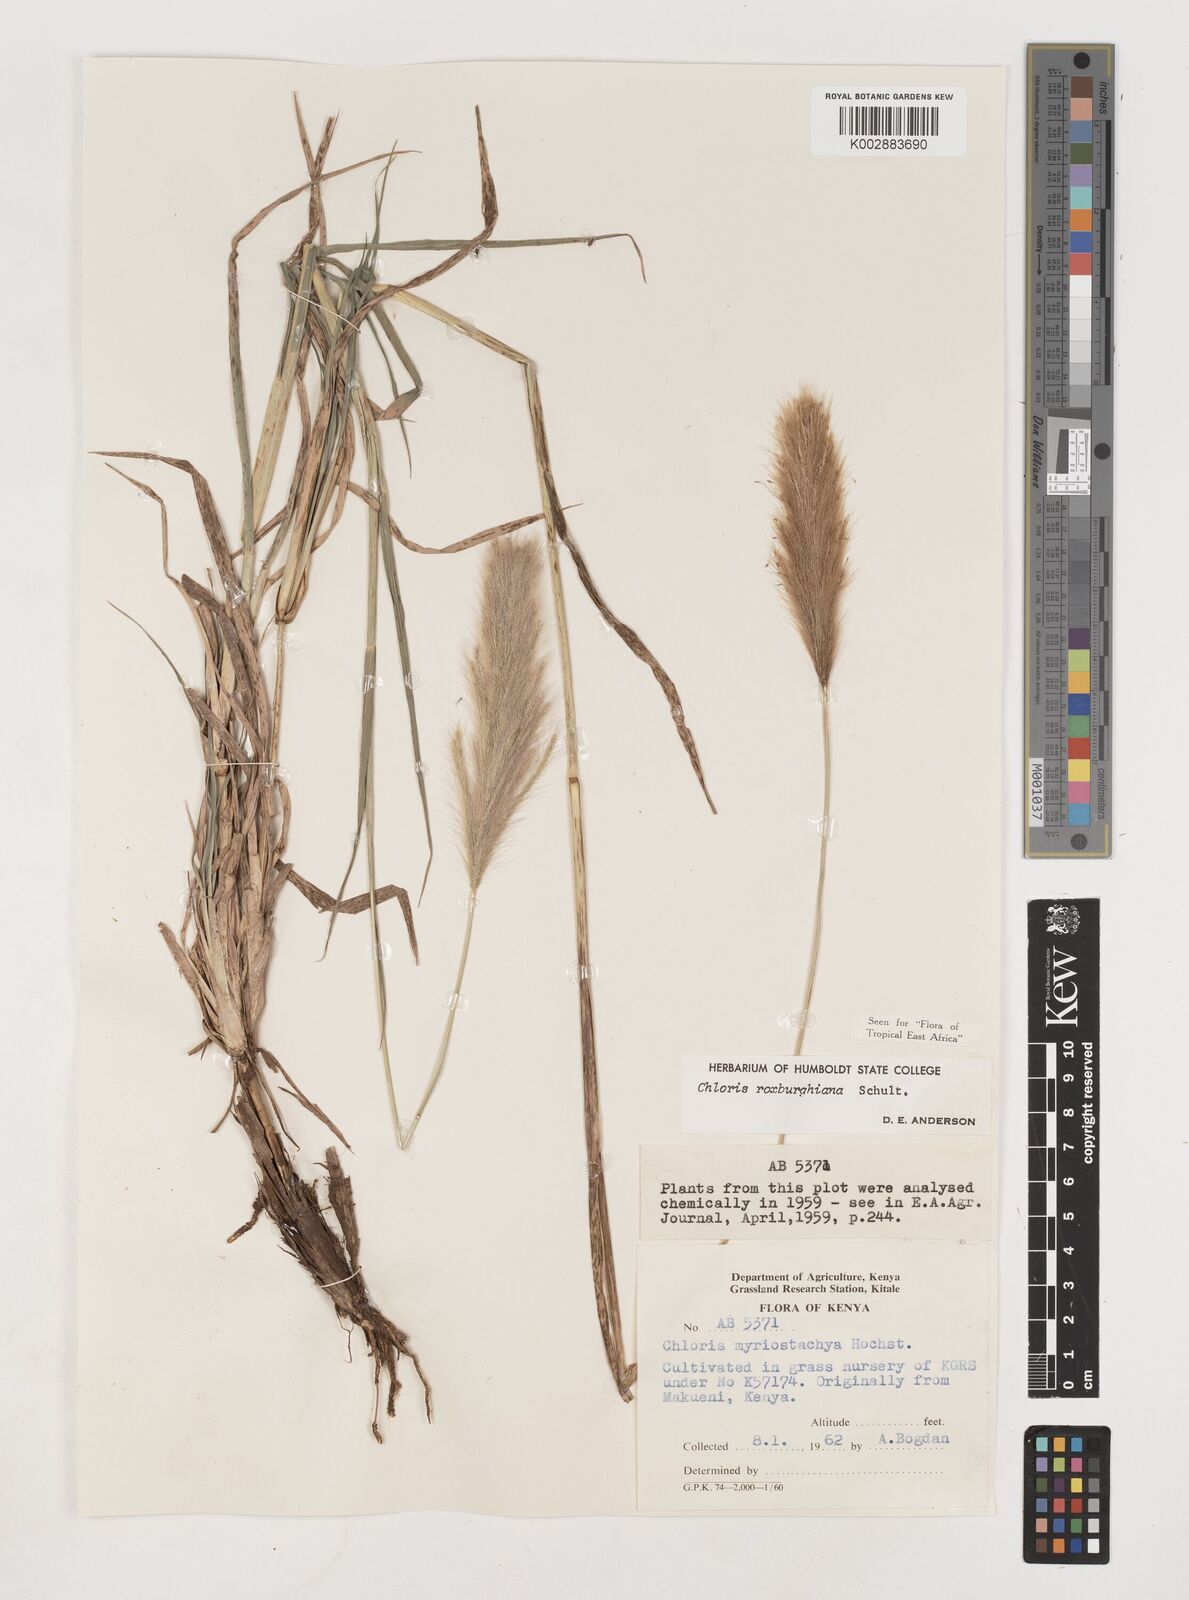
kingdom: Plantae
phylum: Tracheophyta
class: Liliopsida
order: Poales
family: Poaceae
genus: Tetrapogon
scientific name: Tetrapogon roxburghiana
